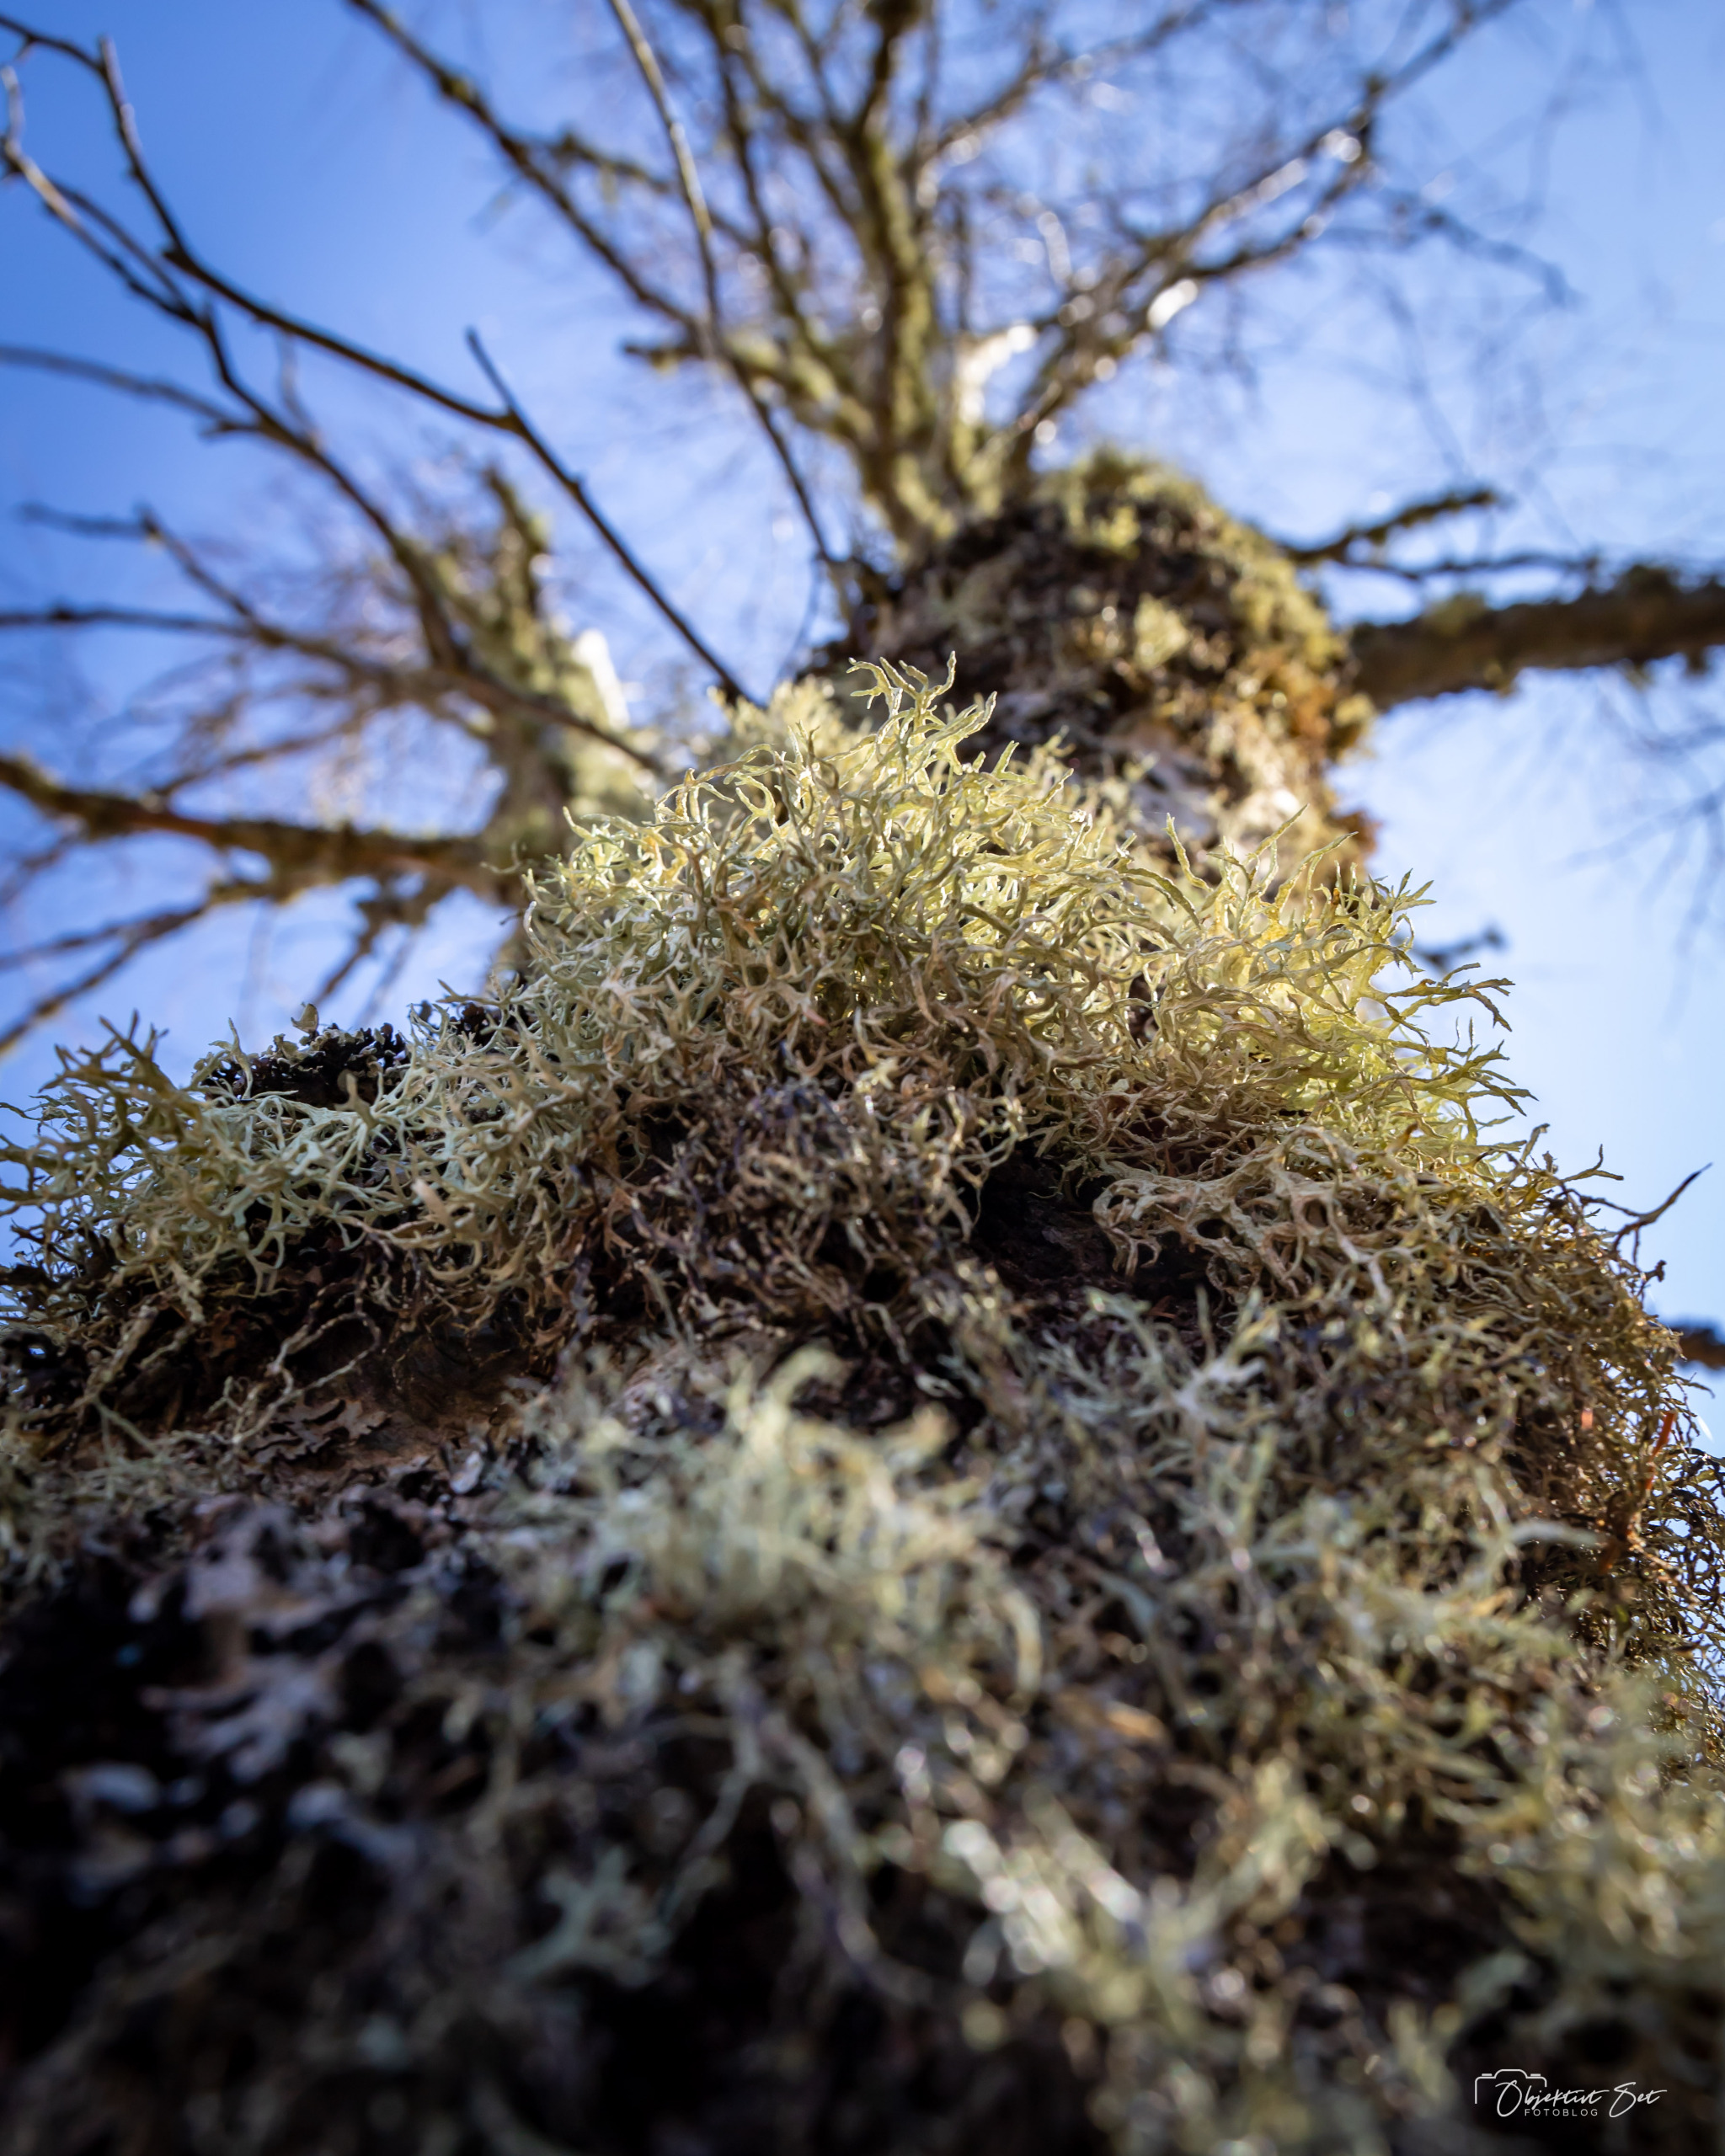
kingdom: Fungi
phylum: Ascomycota
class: Lecanoromycetes
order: Lecanorales
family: Parmeliaceae
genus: Evernia
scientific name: Evernia prunastri
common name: Almindelig slåenlav
